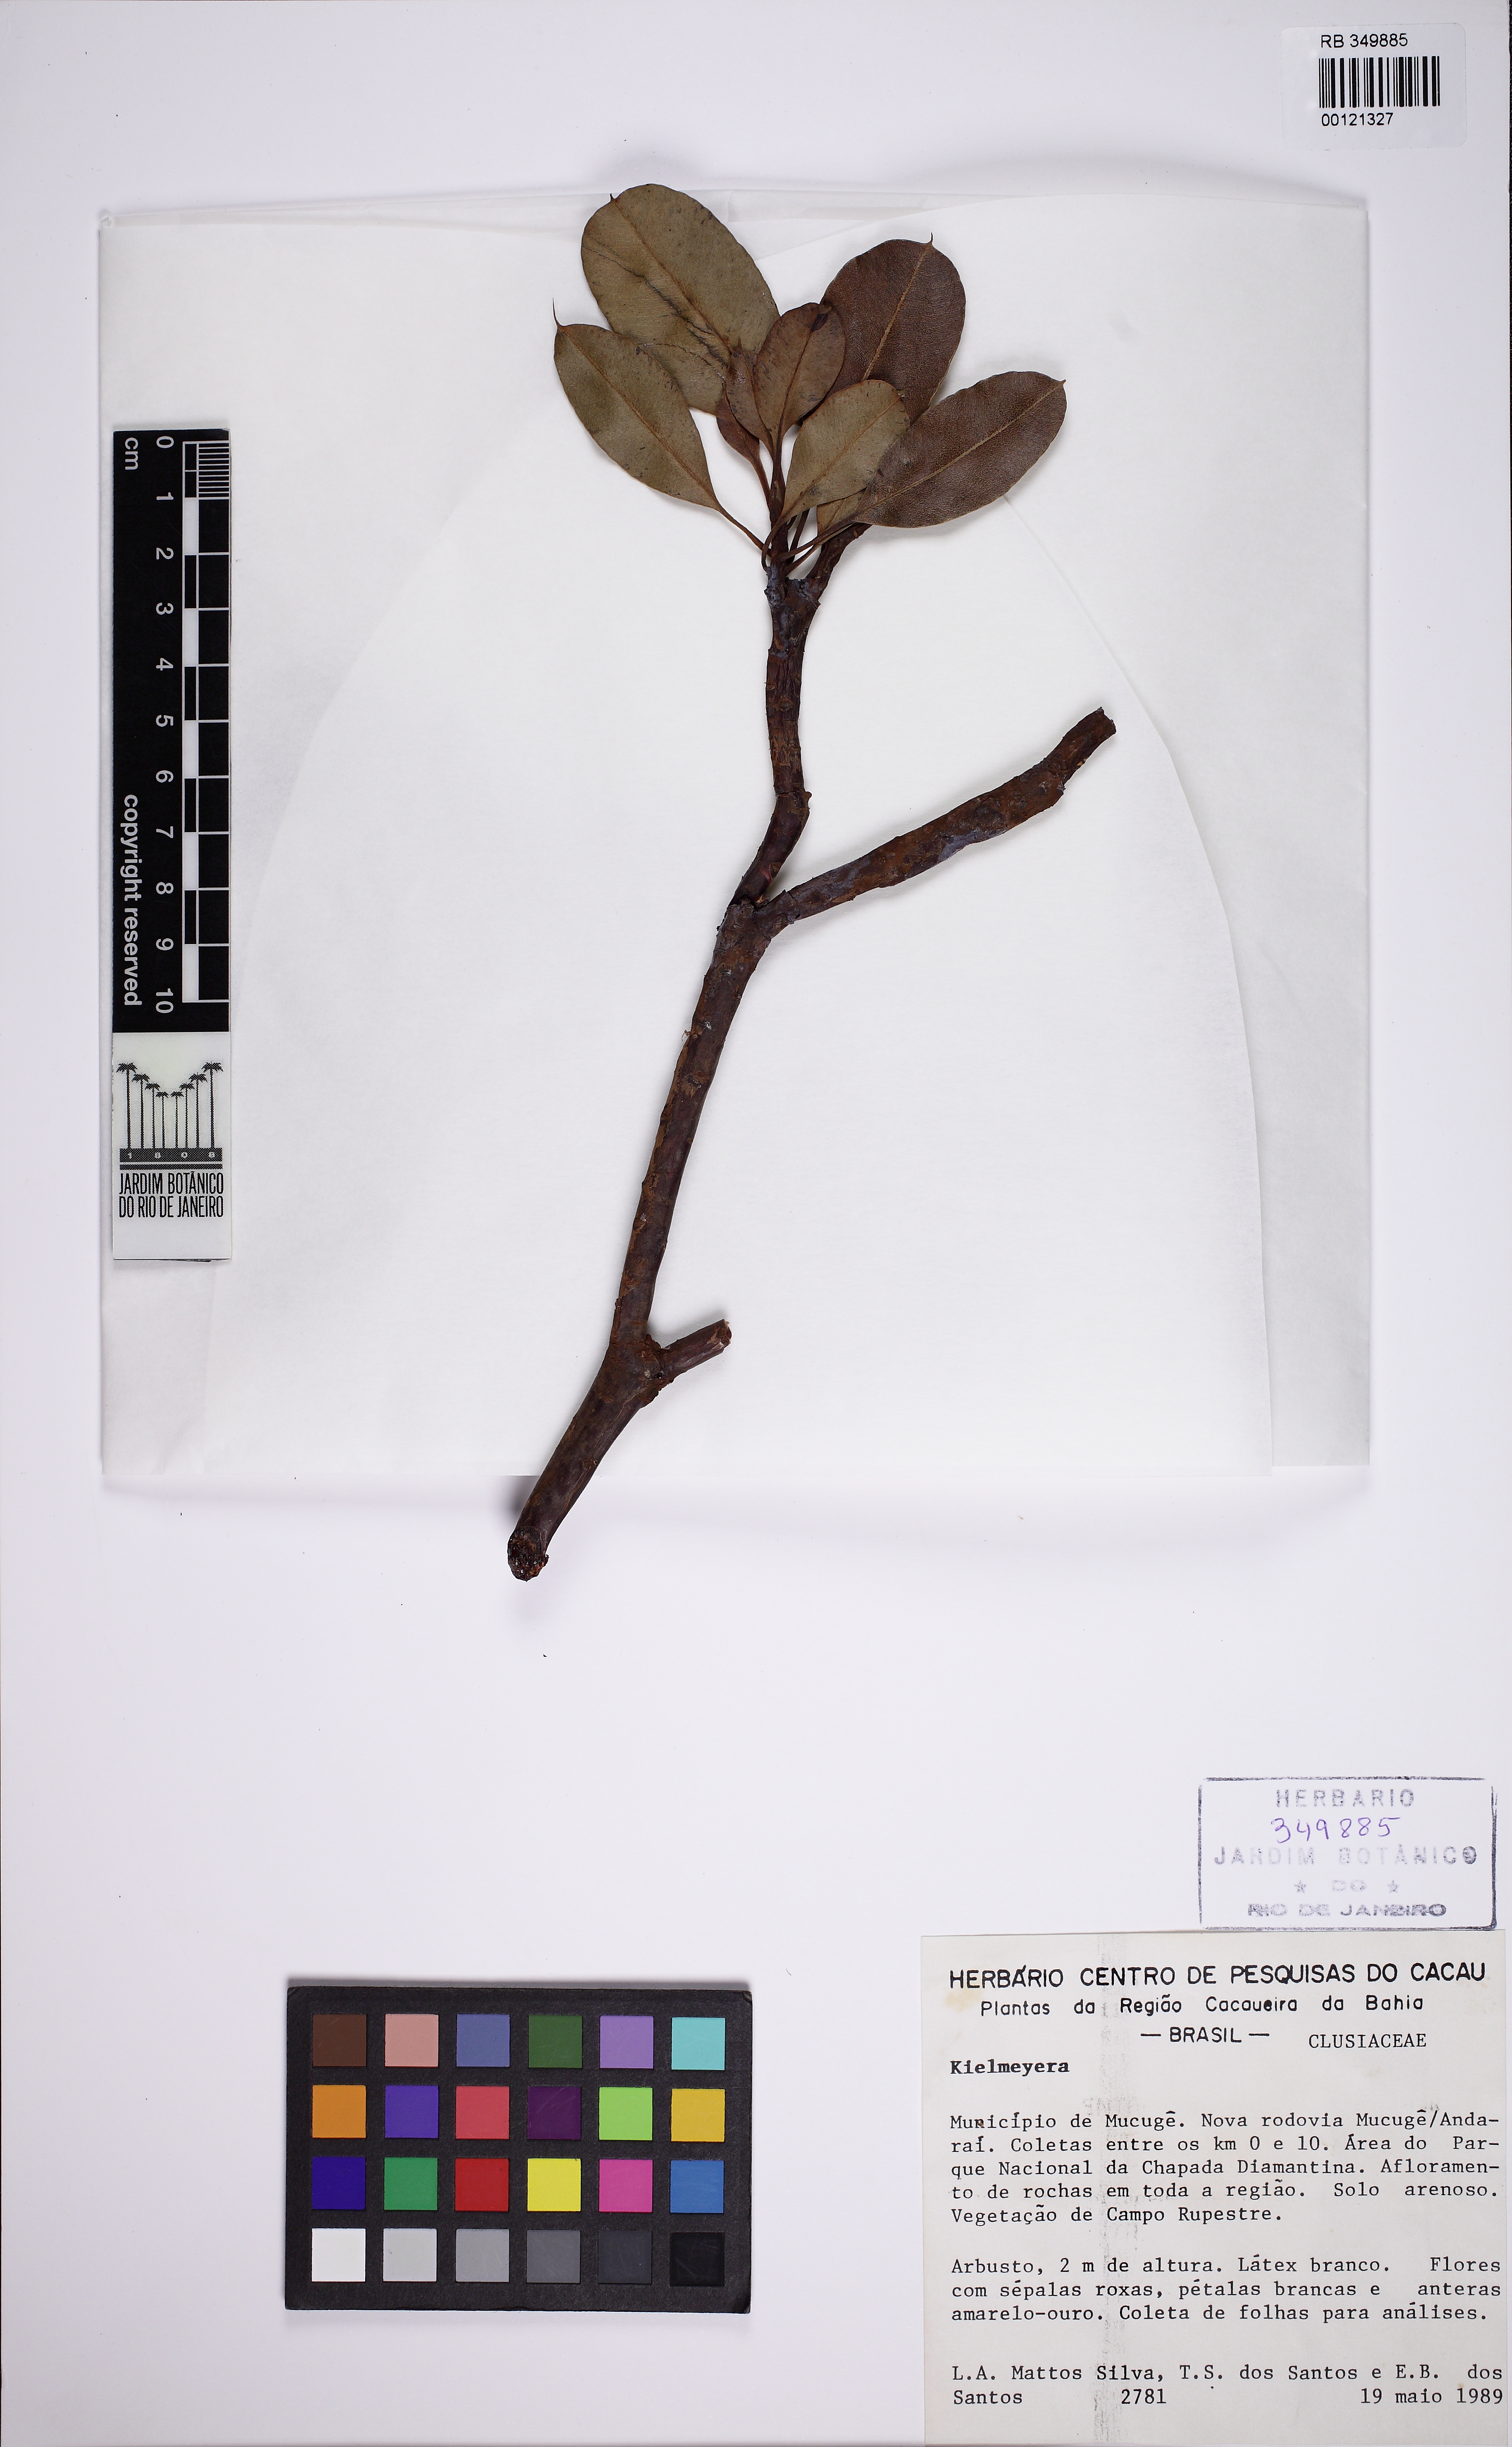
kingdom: Plantae
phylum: Tracheophyta
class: Magnoliopsida
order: Malpighiales
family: Calophyllaceae
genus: Kielmeyera
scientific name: Kielmeyera cuspidata
